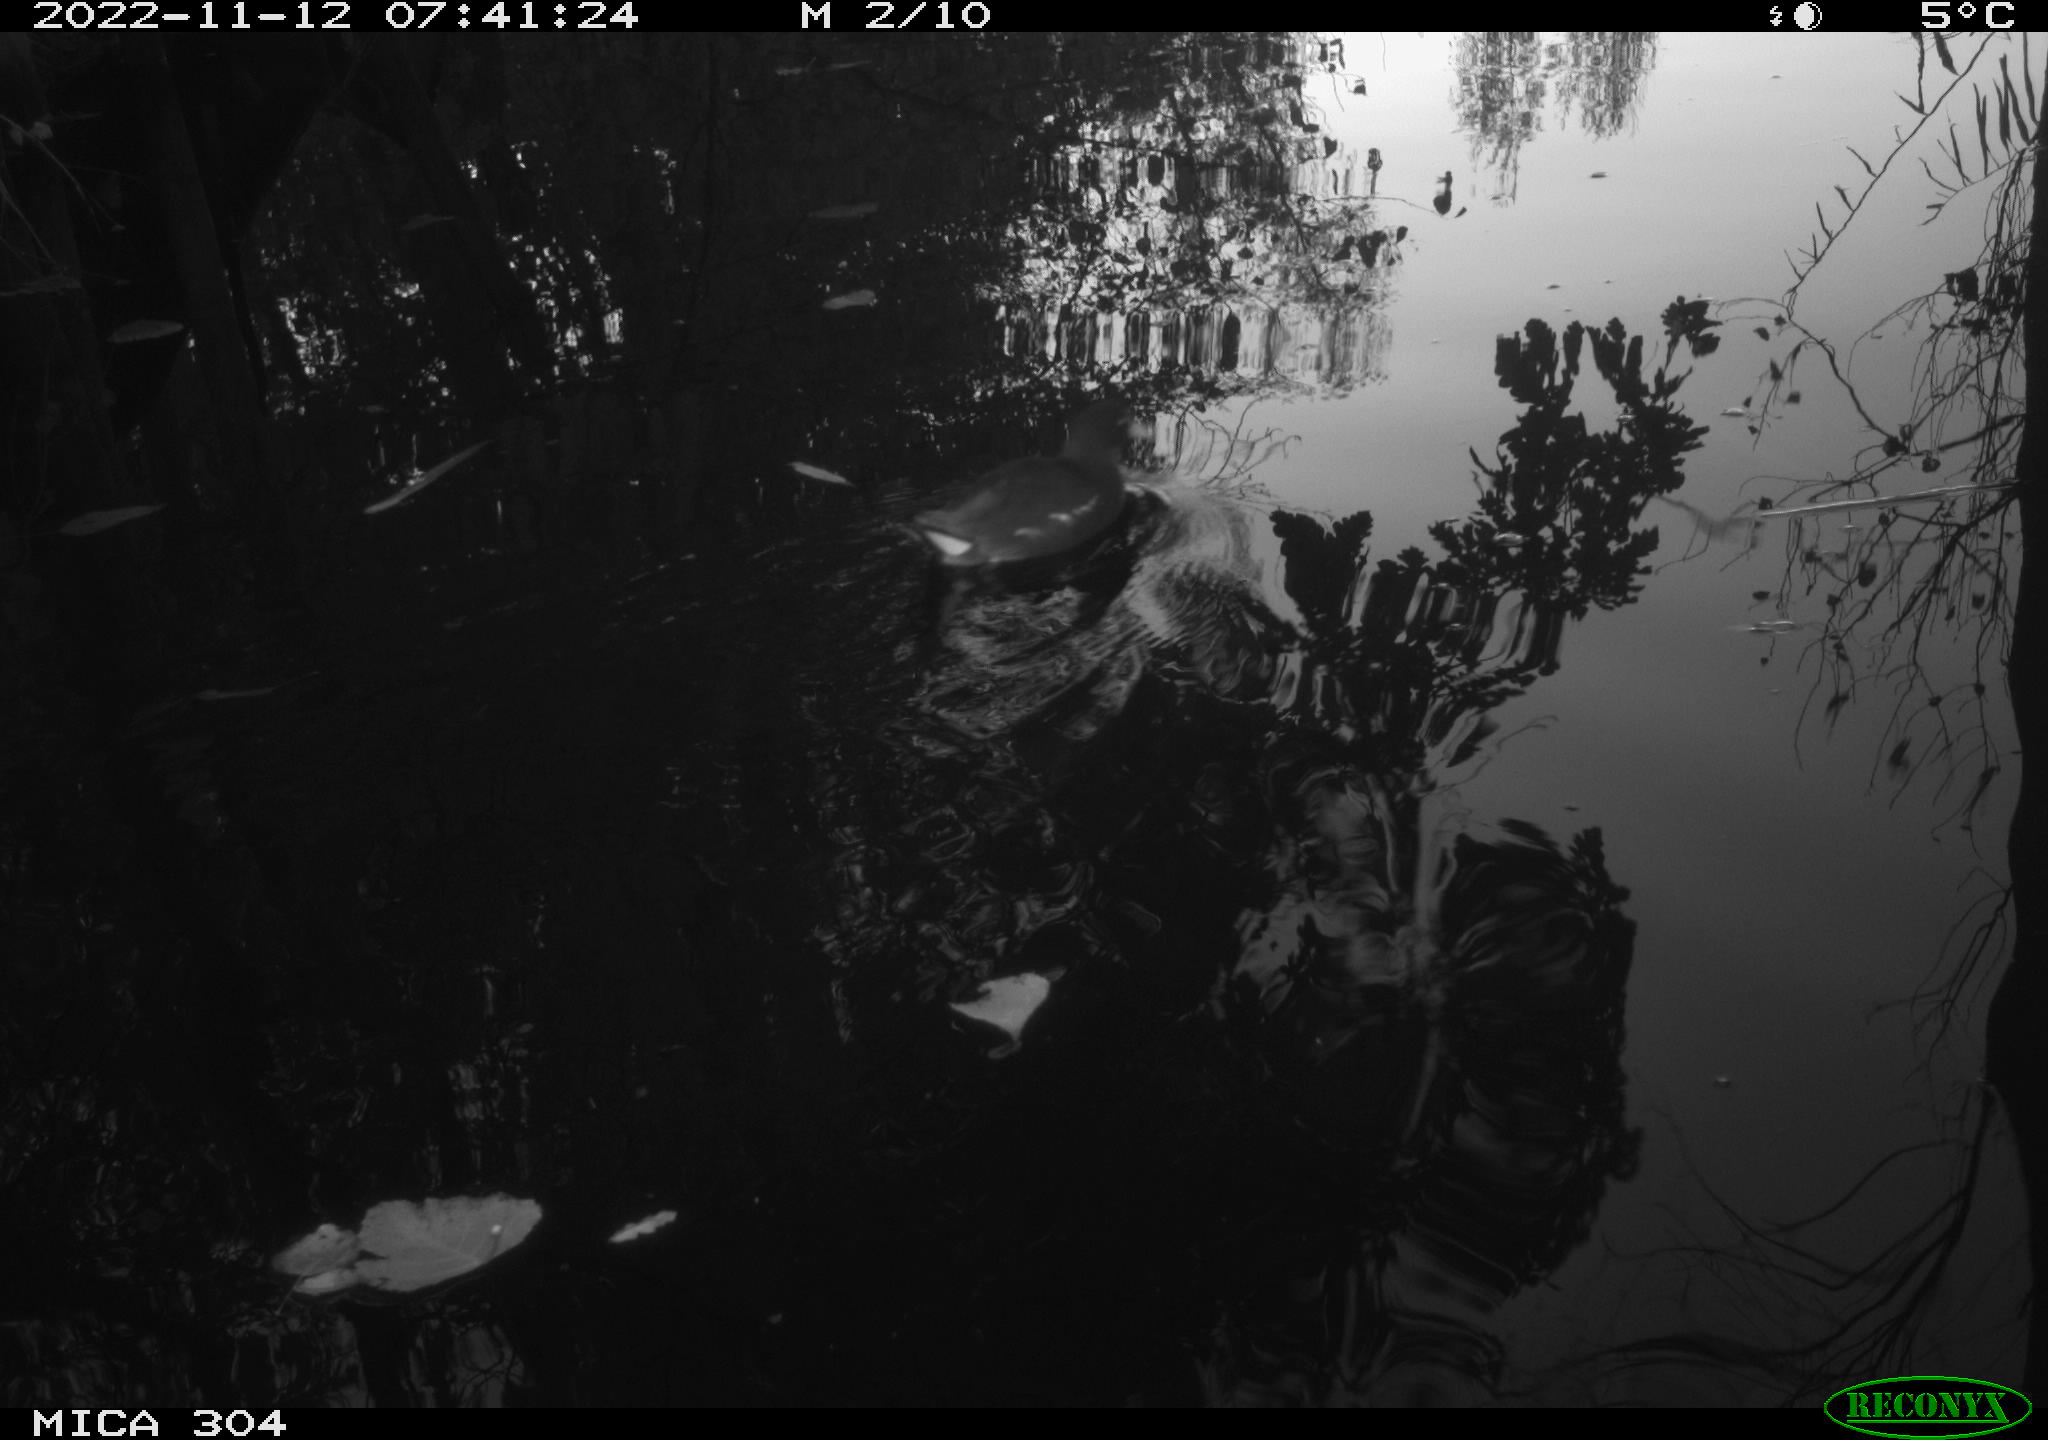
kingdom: Animalia
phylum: Chordata
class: Aves
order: Gruiformes
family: Rallidae
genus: Gallinula
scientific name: Gallinula chloropus
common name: Common moorhen
